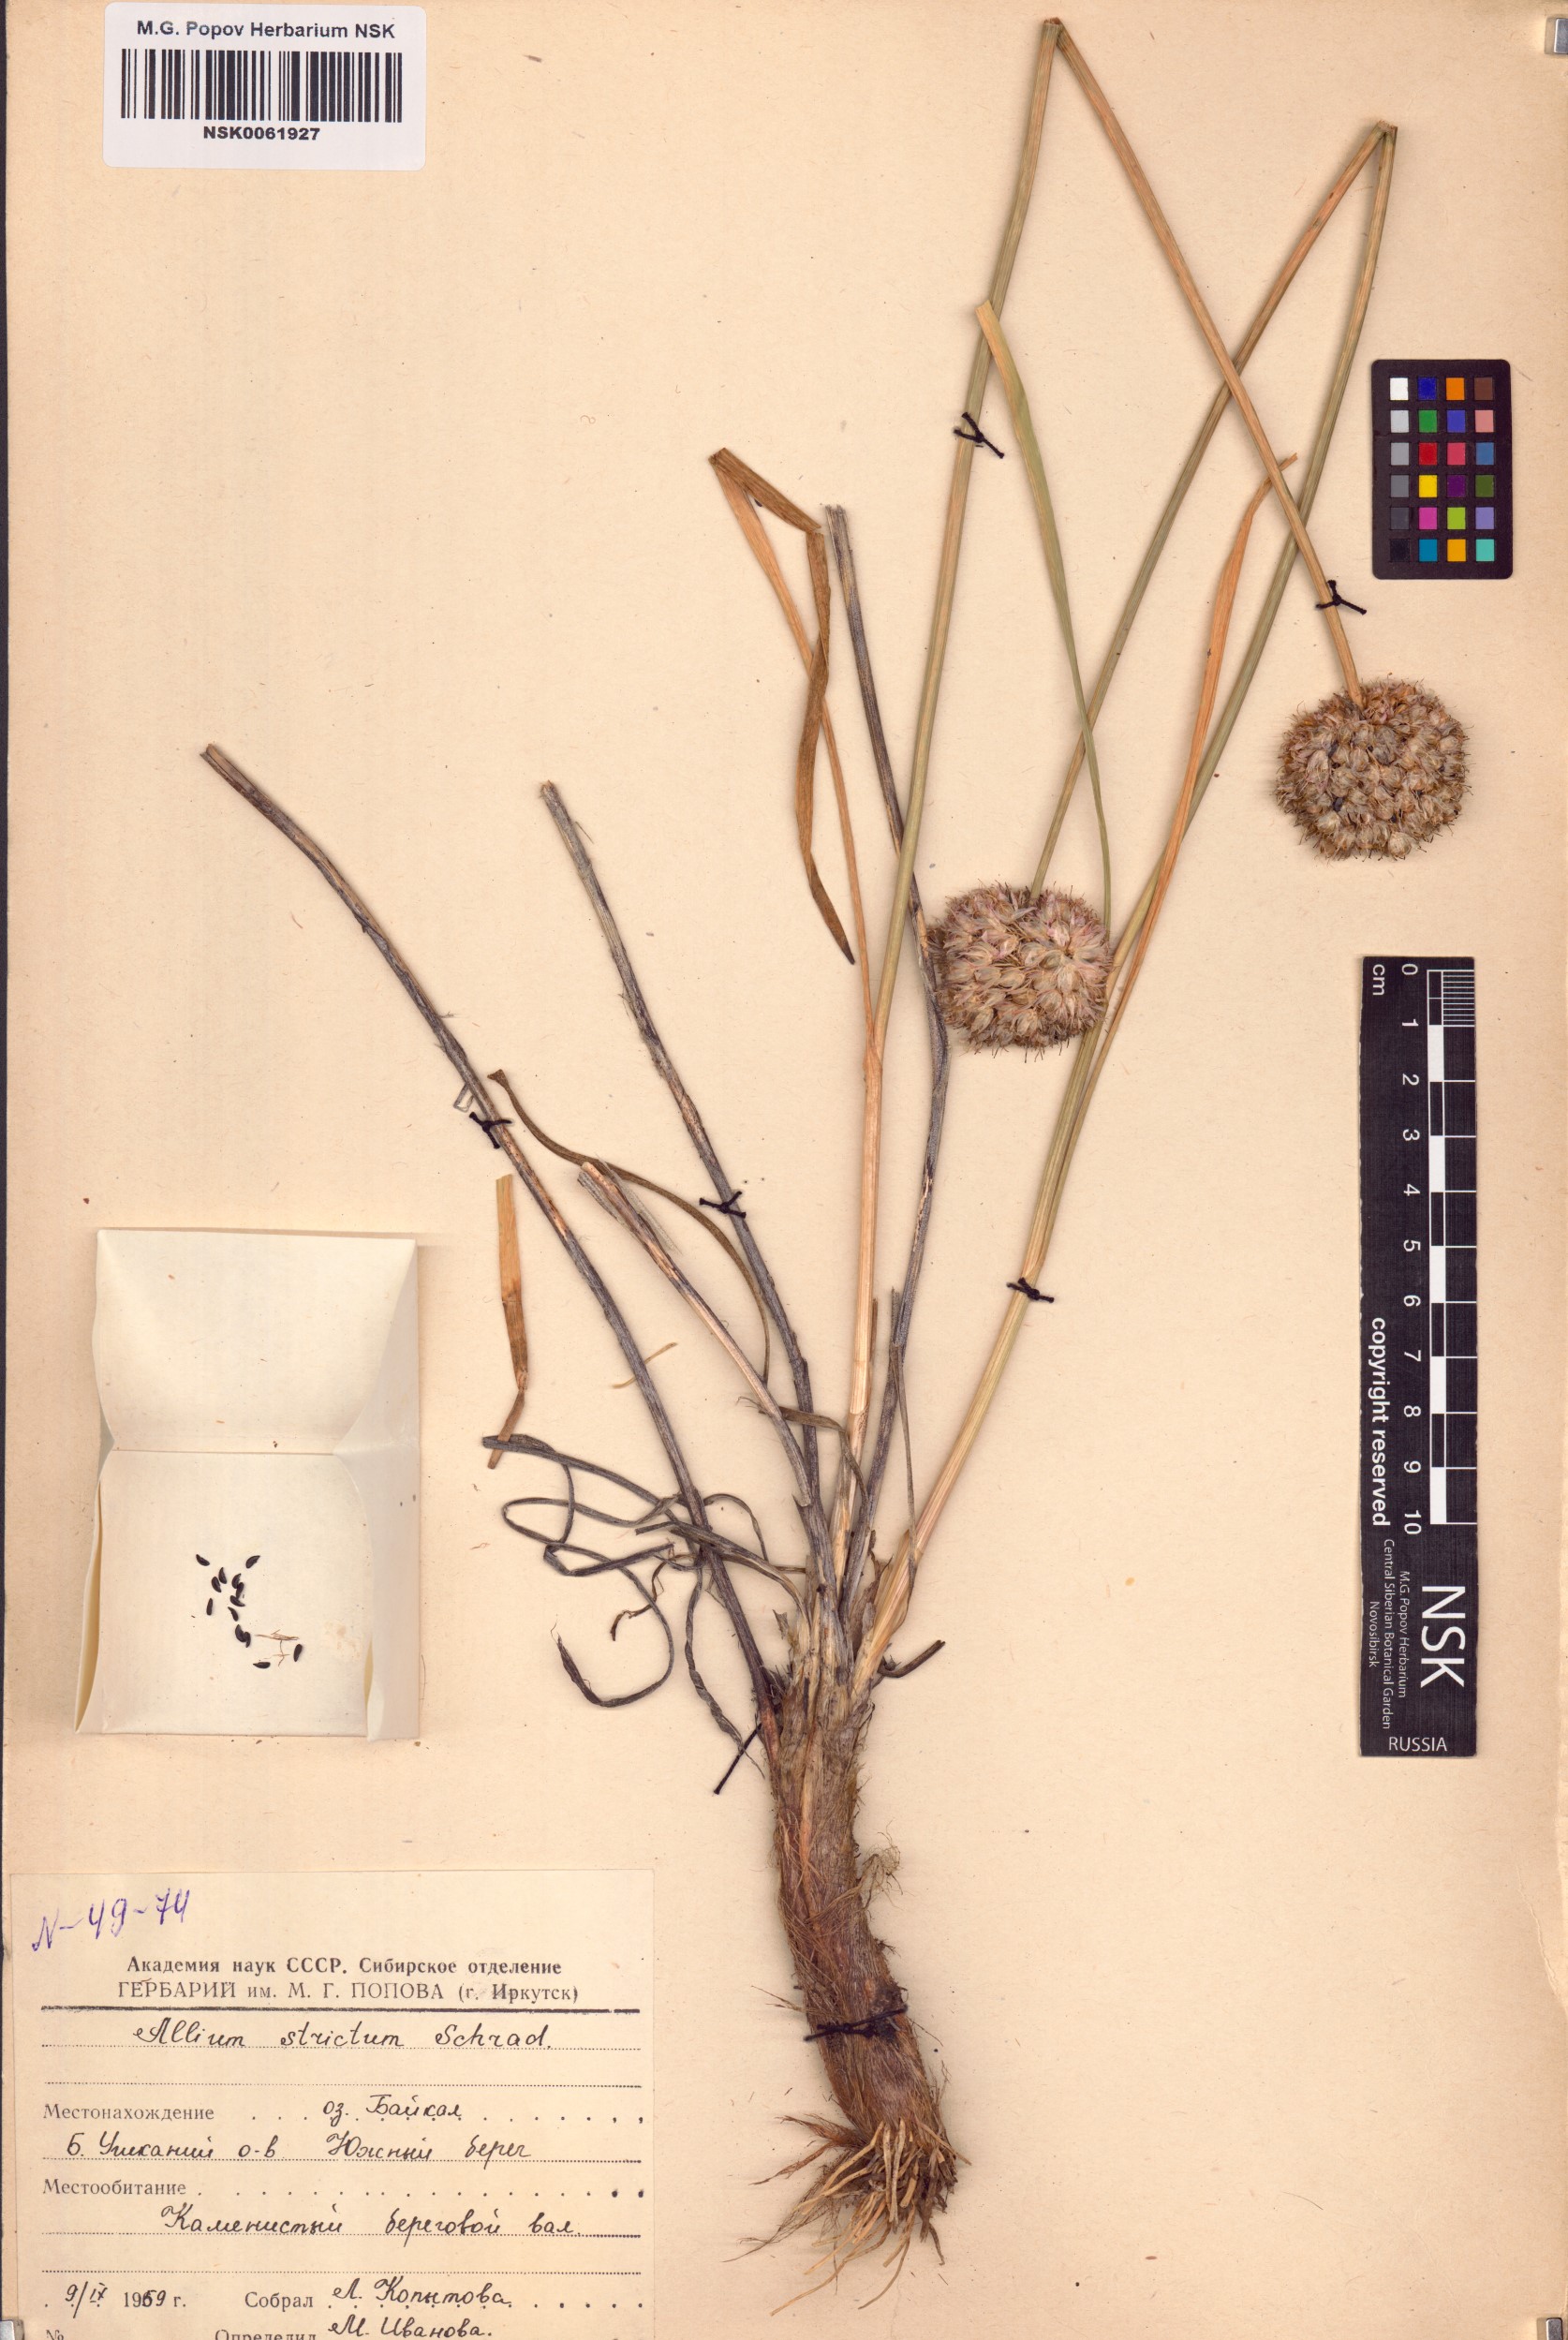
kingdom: Plantae
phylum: Tracheophyta
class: Liliopsida
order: Asparagales
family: Amaryllidaceae
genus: Allium
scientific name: Allium strictum
